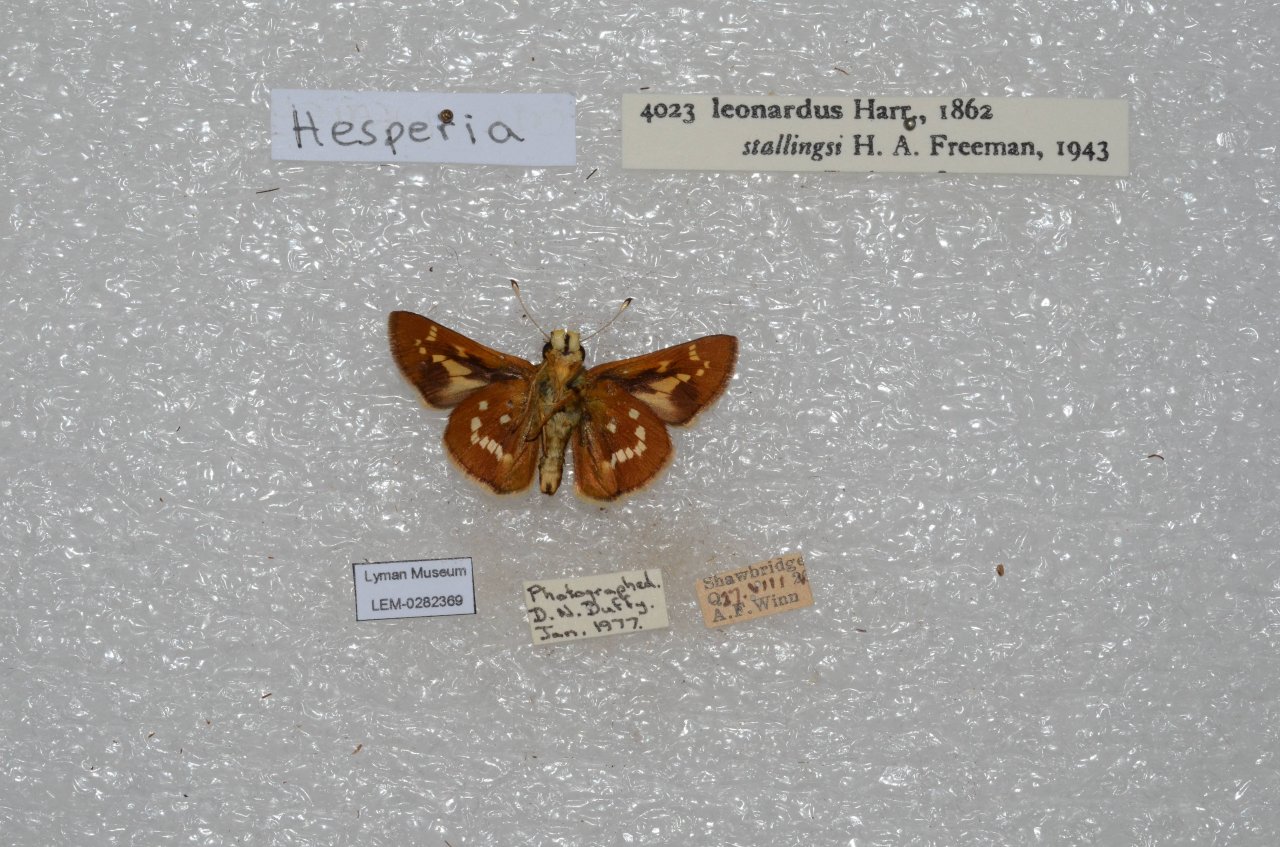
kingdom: Animalia
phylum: Arthropoda
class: Insecta
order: Lepidoptera
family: Hesperiidae
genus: Hesperia
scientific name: Hesperia leonardus
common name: Leonard's Skipper
